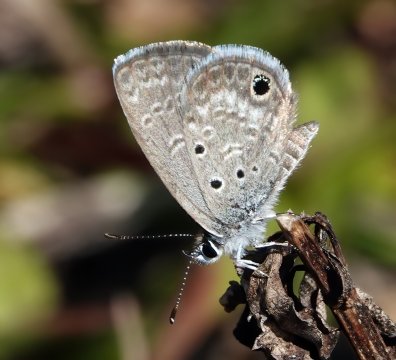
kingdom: Animalia
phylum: Arthropoda
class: Insecta
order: Lepidoptera
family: Lycaenidae
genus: Hemiargus
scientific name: Hemiargus ceraunus
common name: Ceraunus Blue
